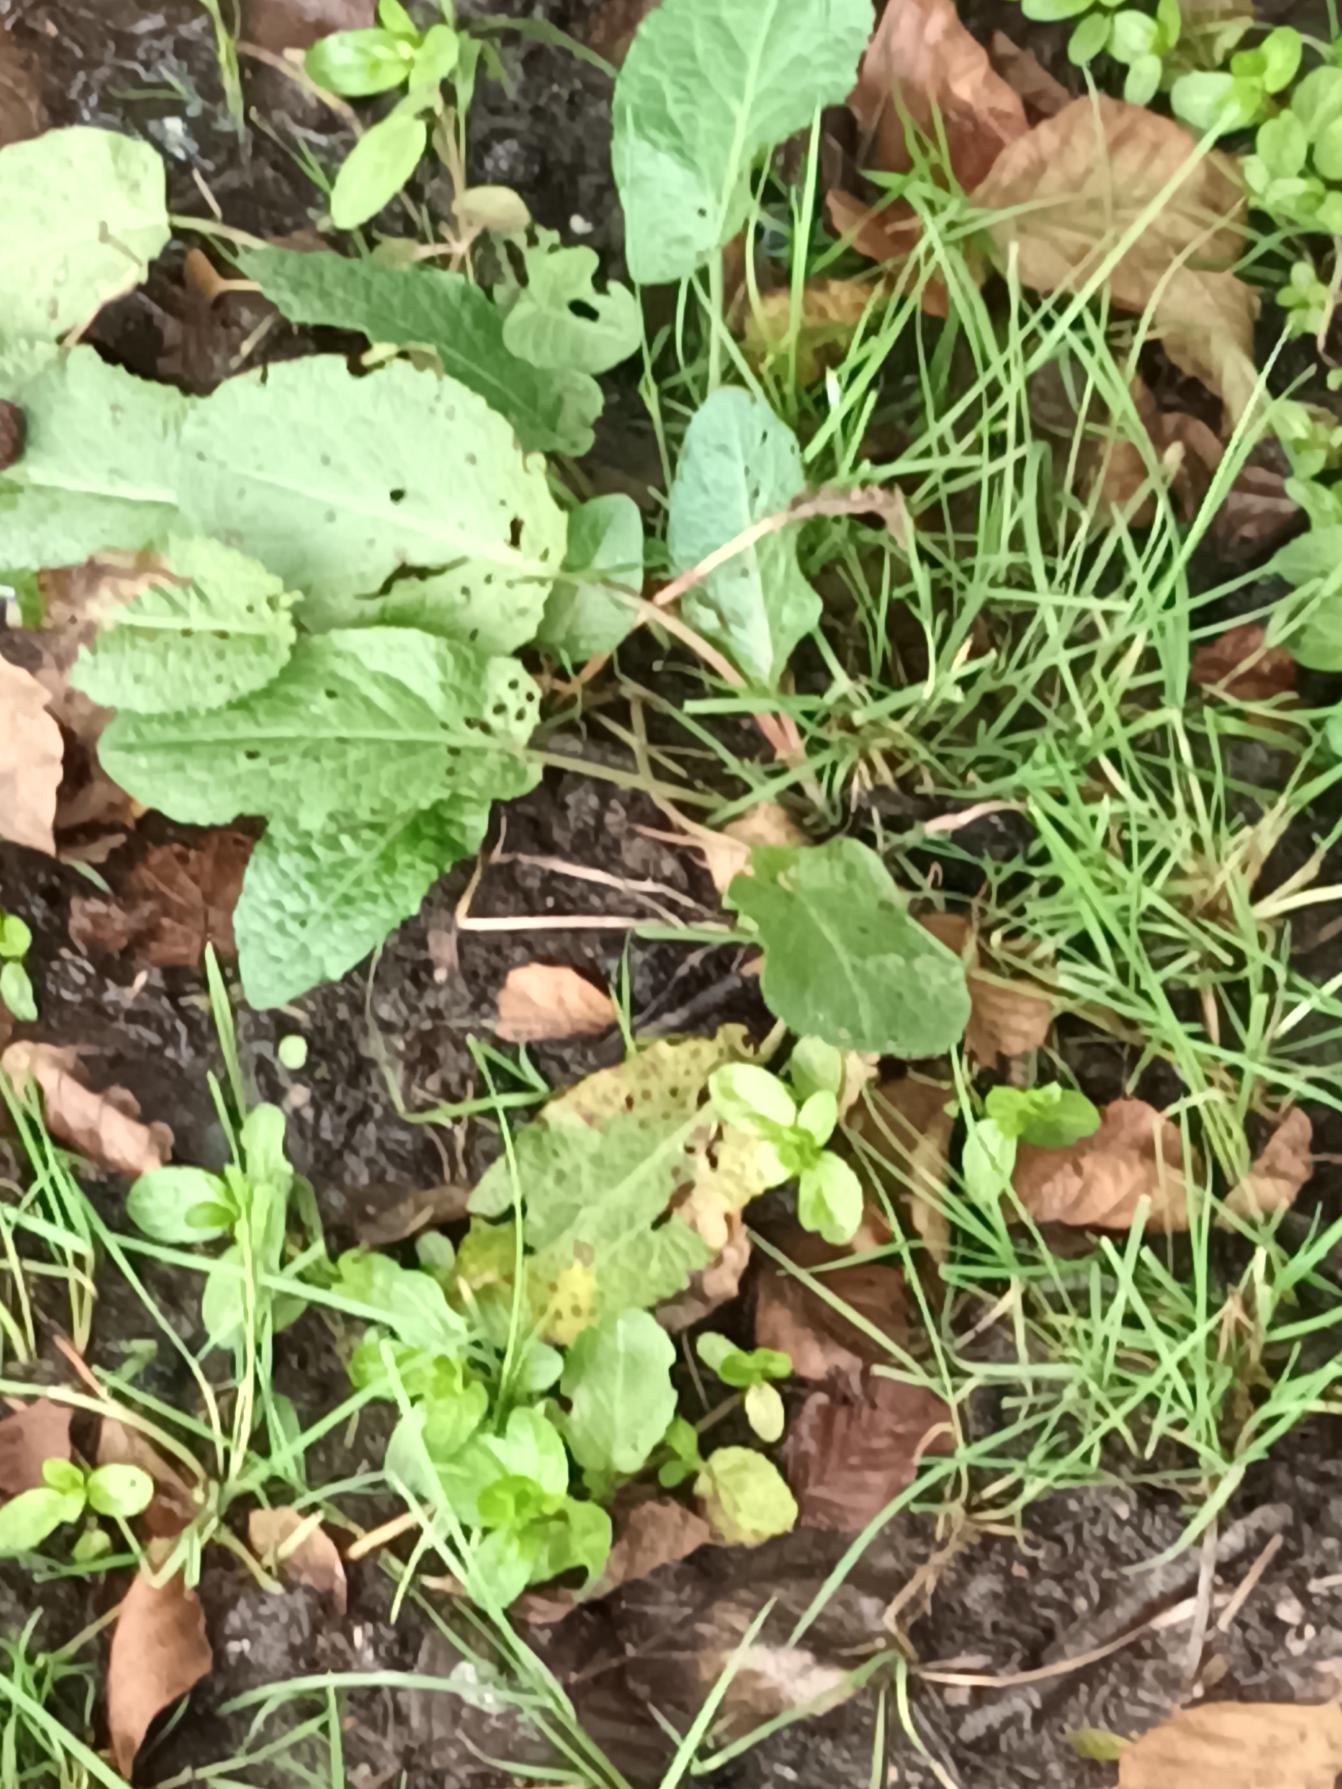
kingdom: Plantae
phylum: Tracheophyta
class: Magnoliopsida
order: Caryophyllales
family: Polygonaceae
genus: Rumex
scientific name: Rumex obtusifolius
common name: Butbladet skræppe
